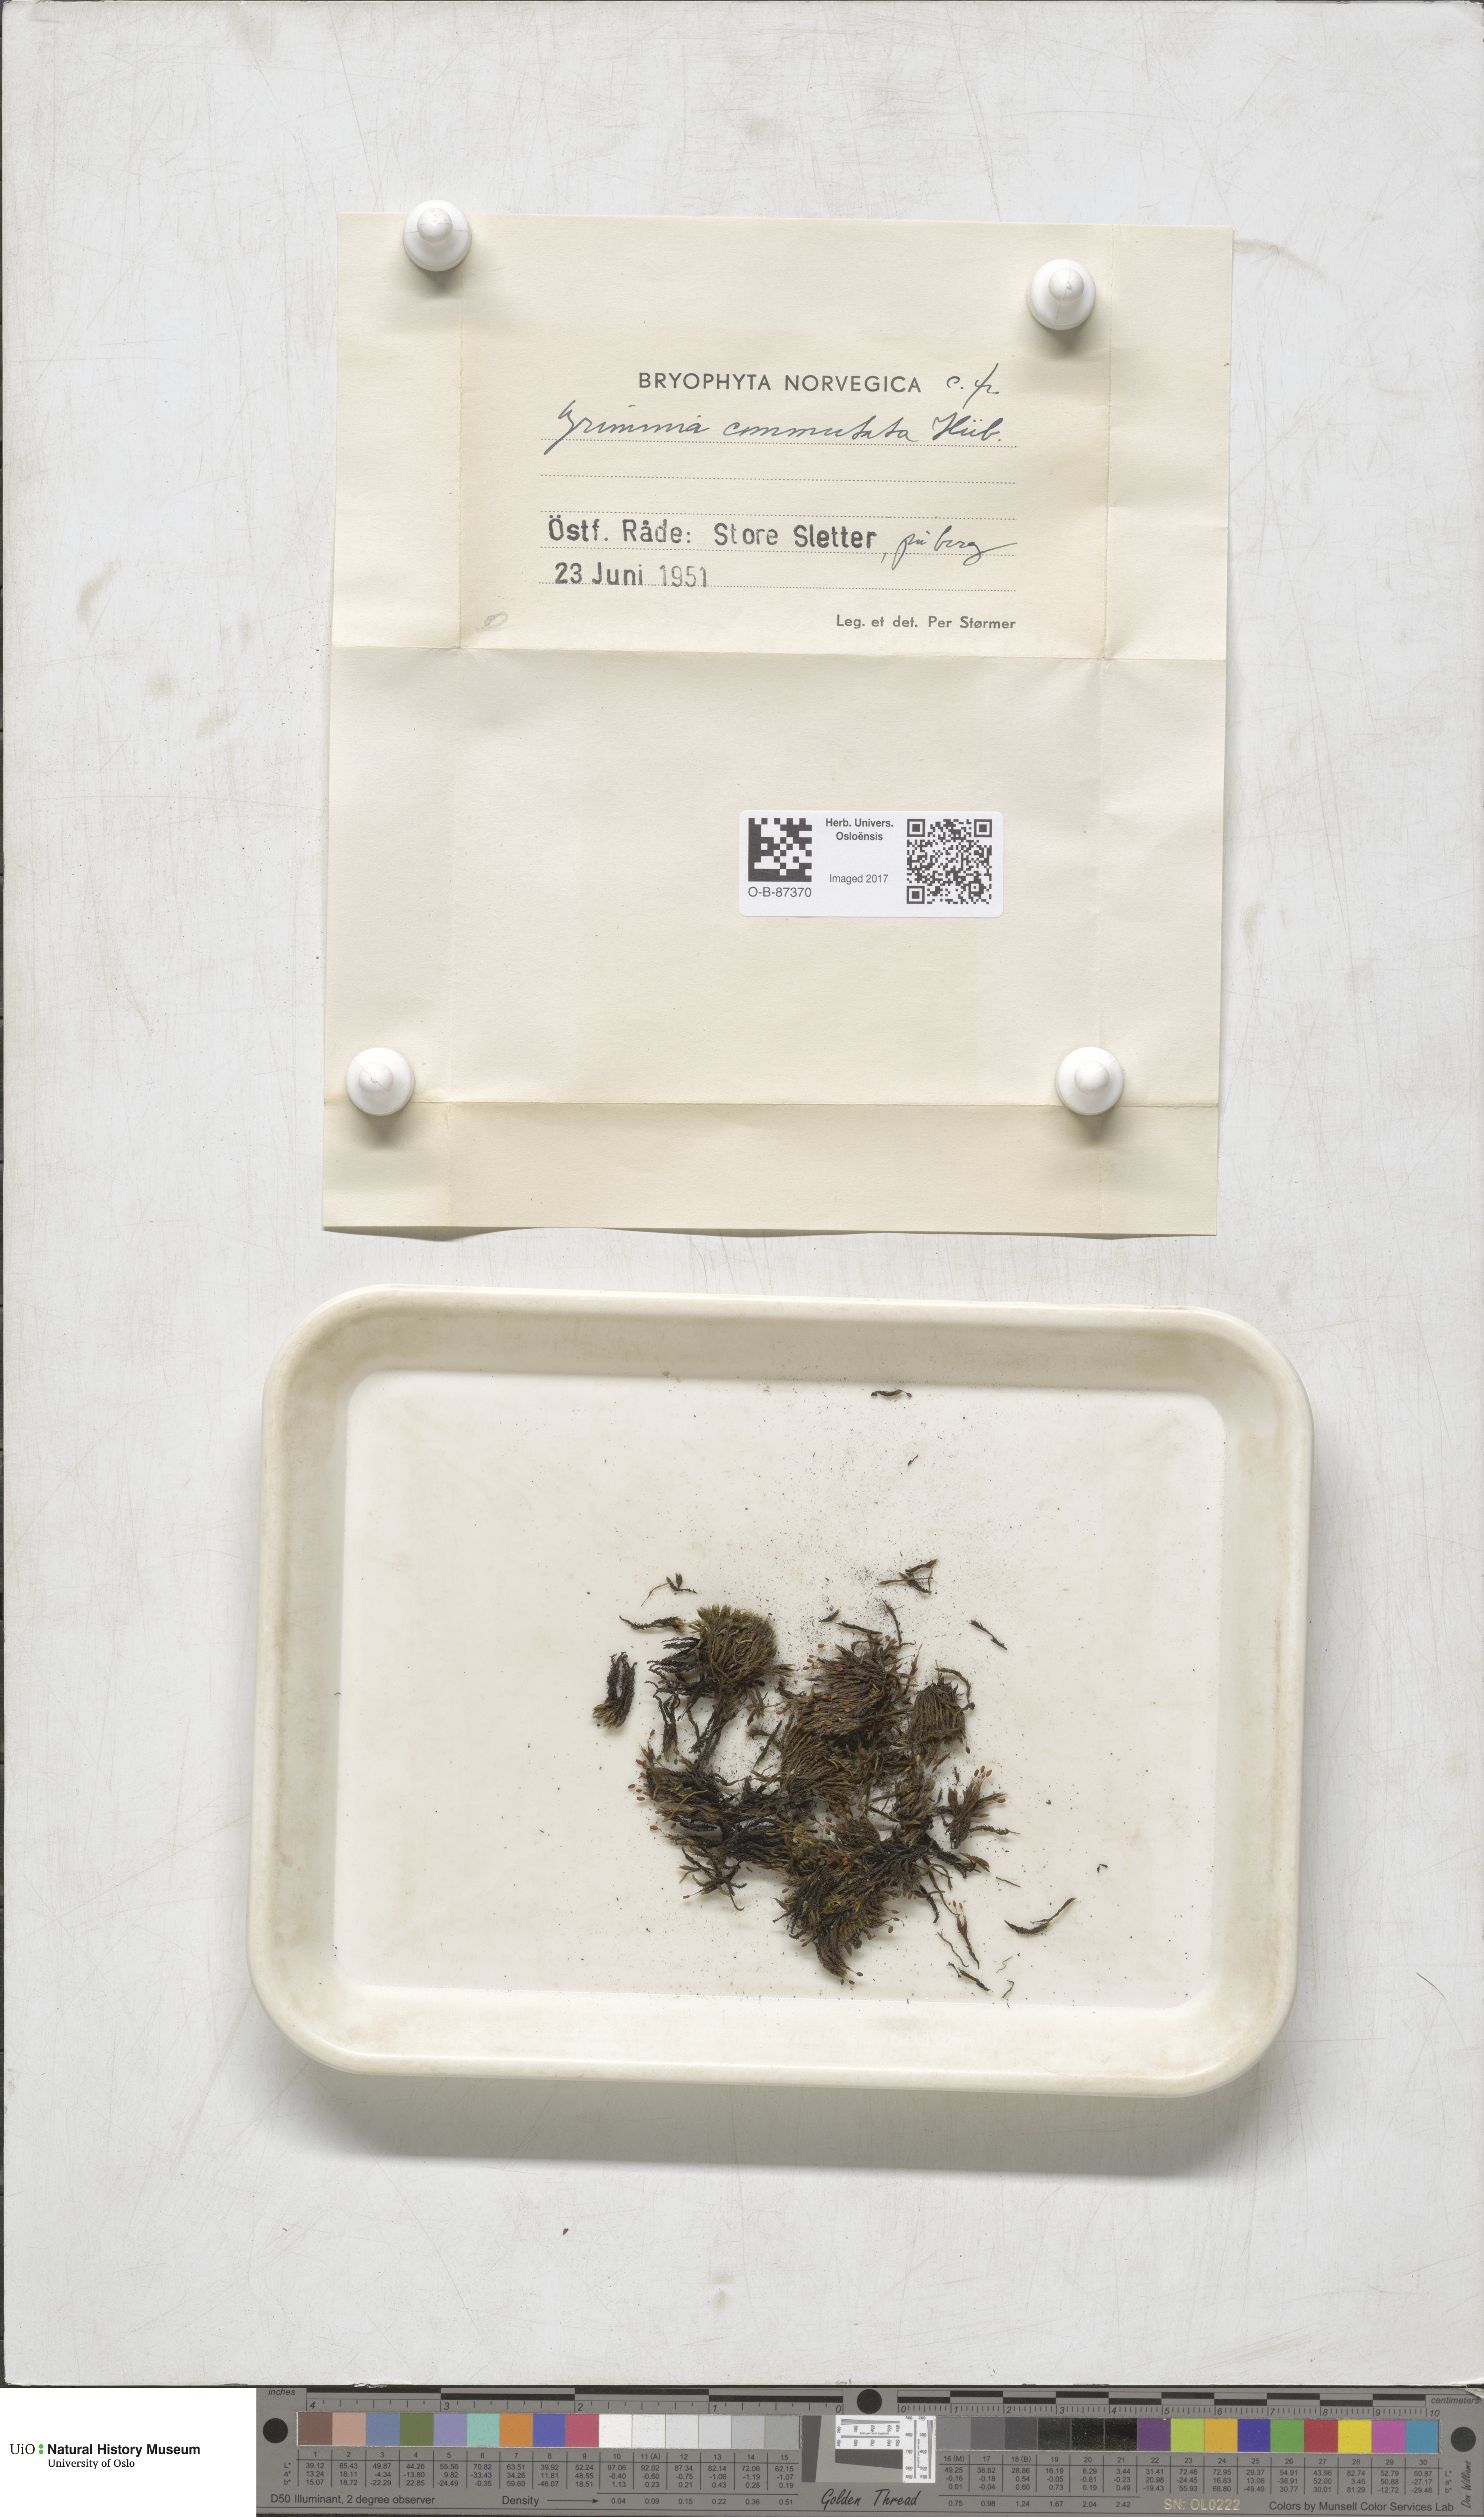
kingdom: Plantae
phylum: Bryophyta
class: Bryopsida
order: Grimmiales
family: Grimmiaceae
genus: Grimmia
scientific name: Grimmia ovalis
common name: Oval grimmia
